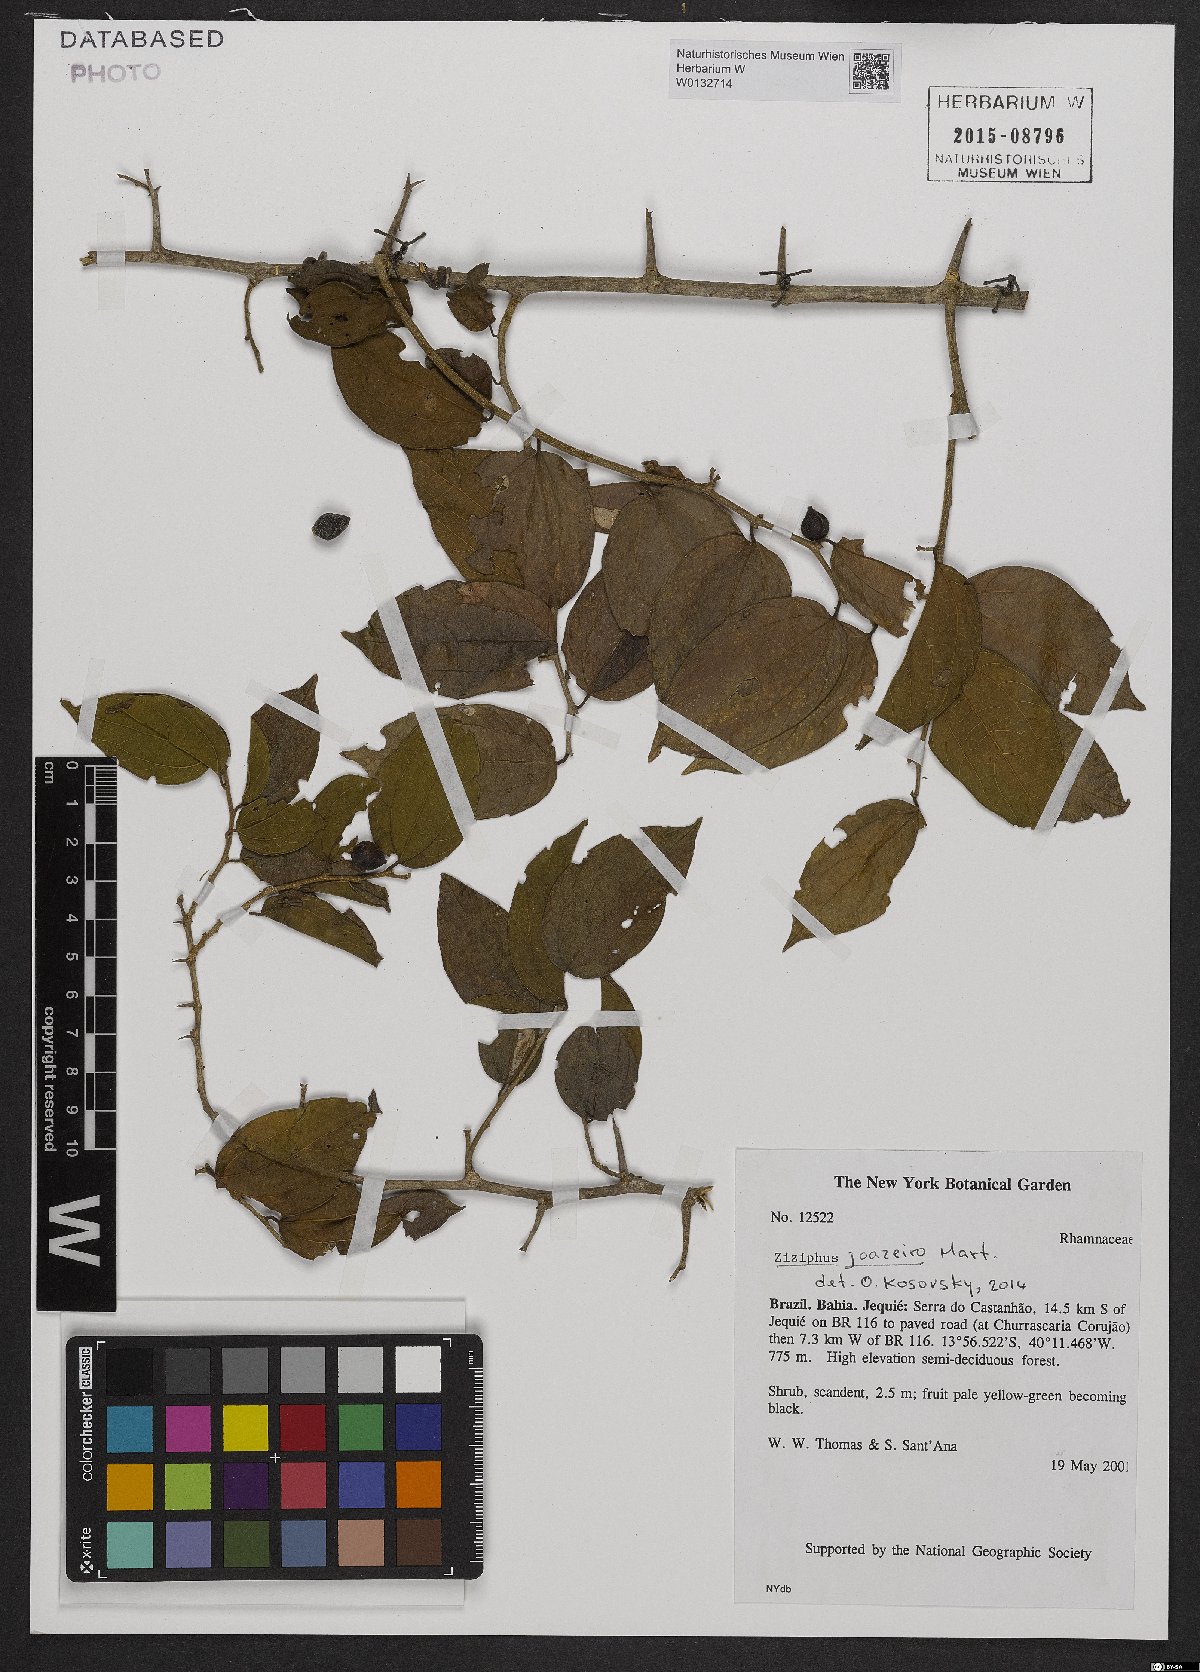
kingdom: Plantae
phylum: Tracheophyta
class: Magnoliopsida
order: Rosales
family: Rhamnaceae
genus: Sarcomphalus
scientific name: Sarcomphalus joazeiro
